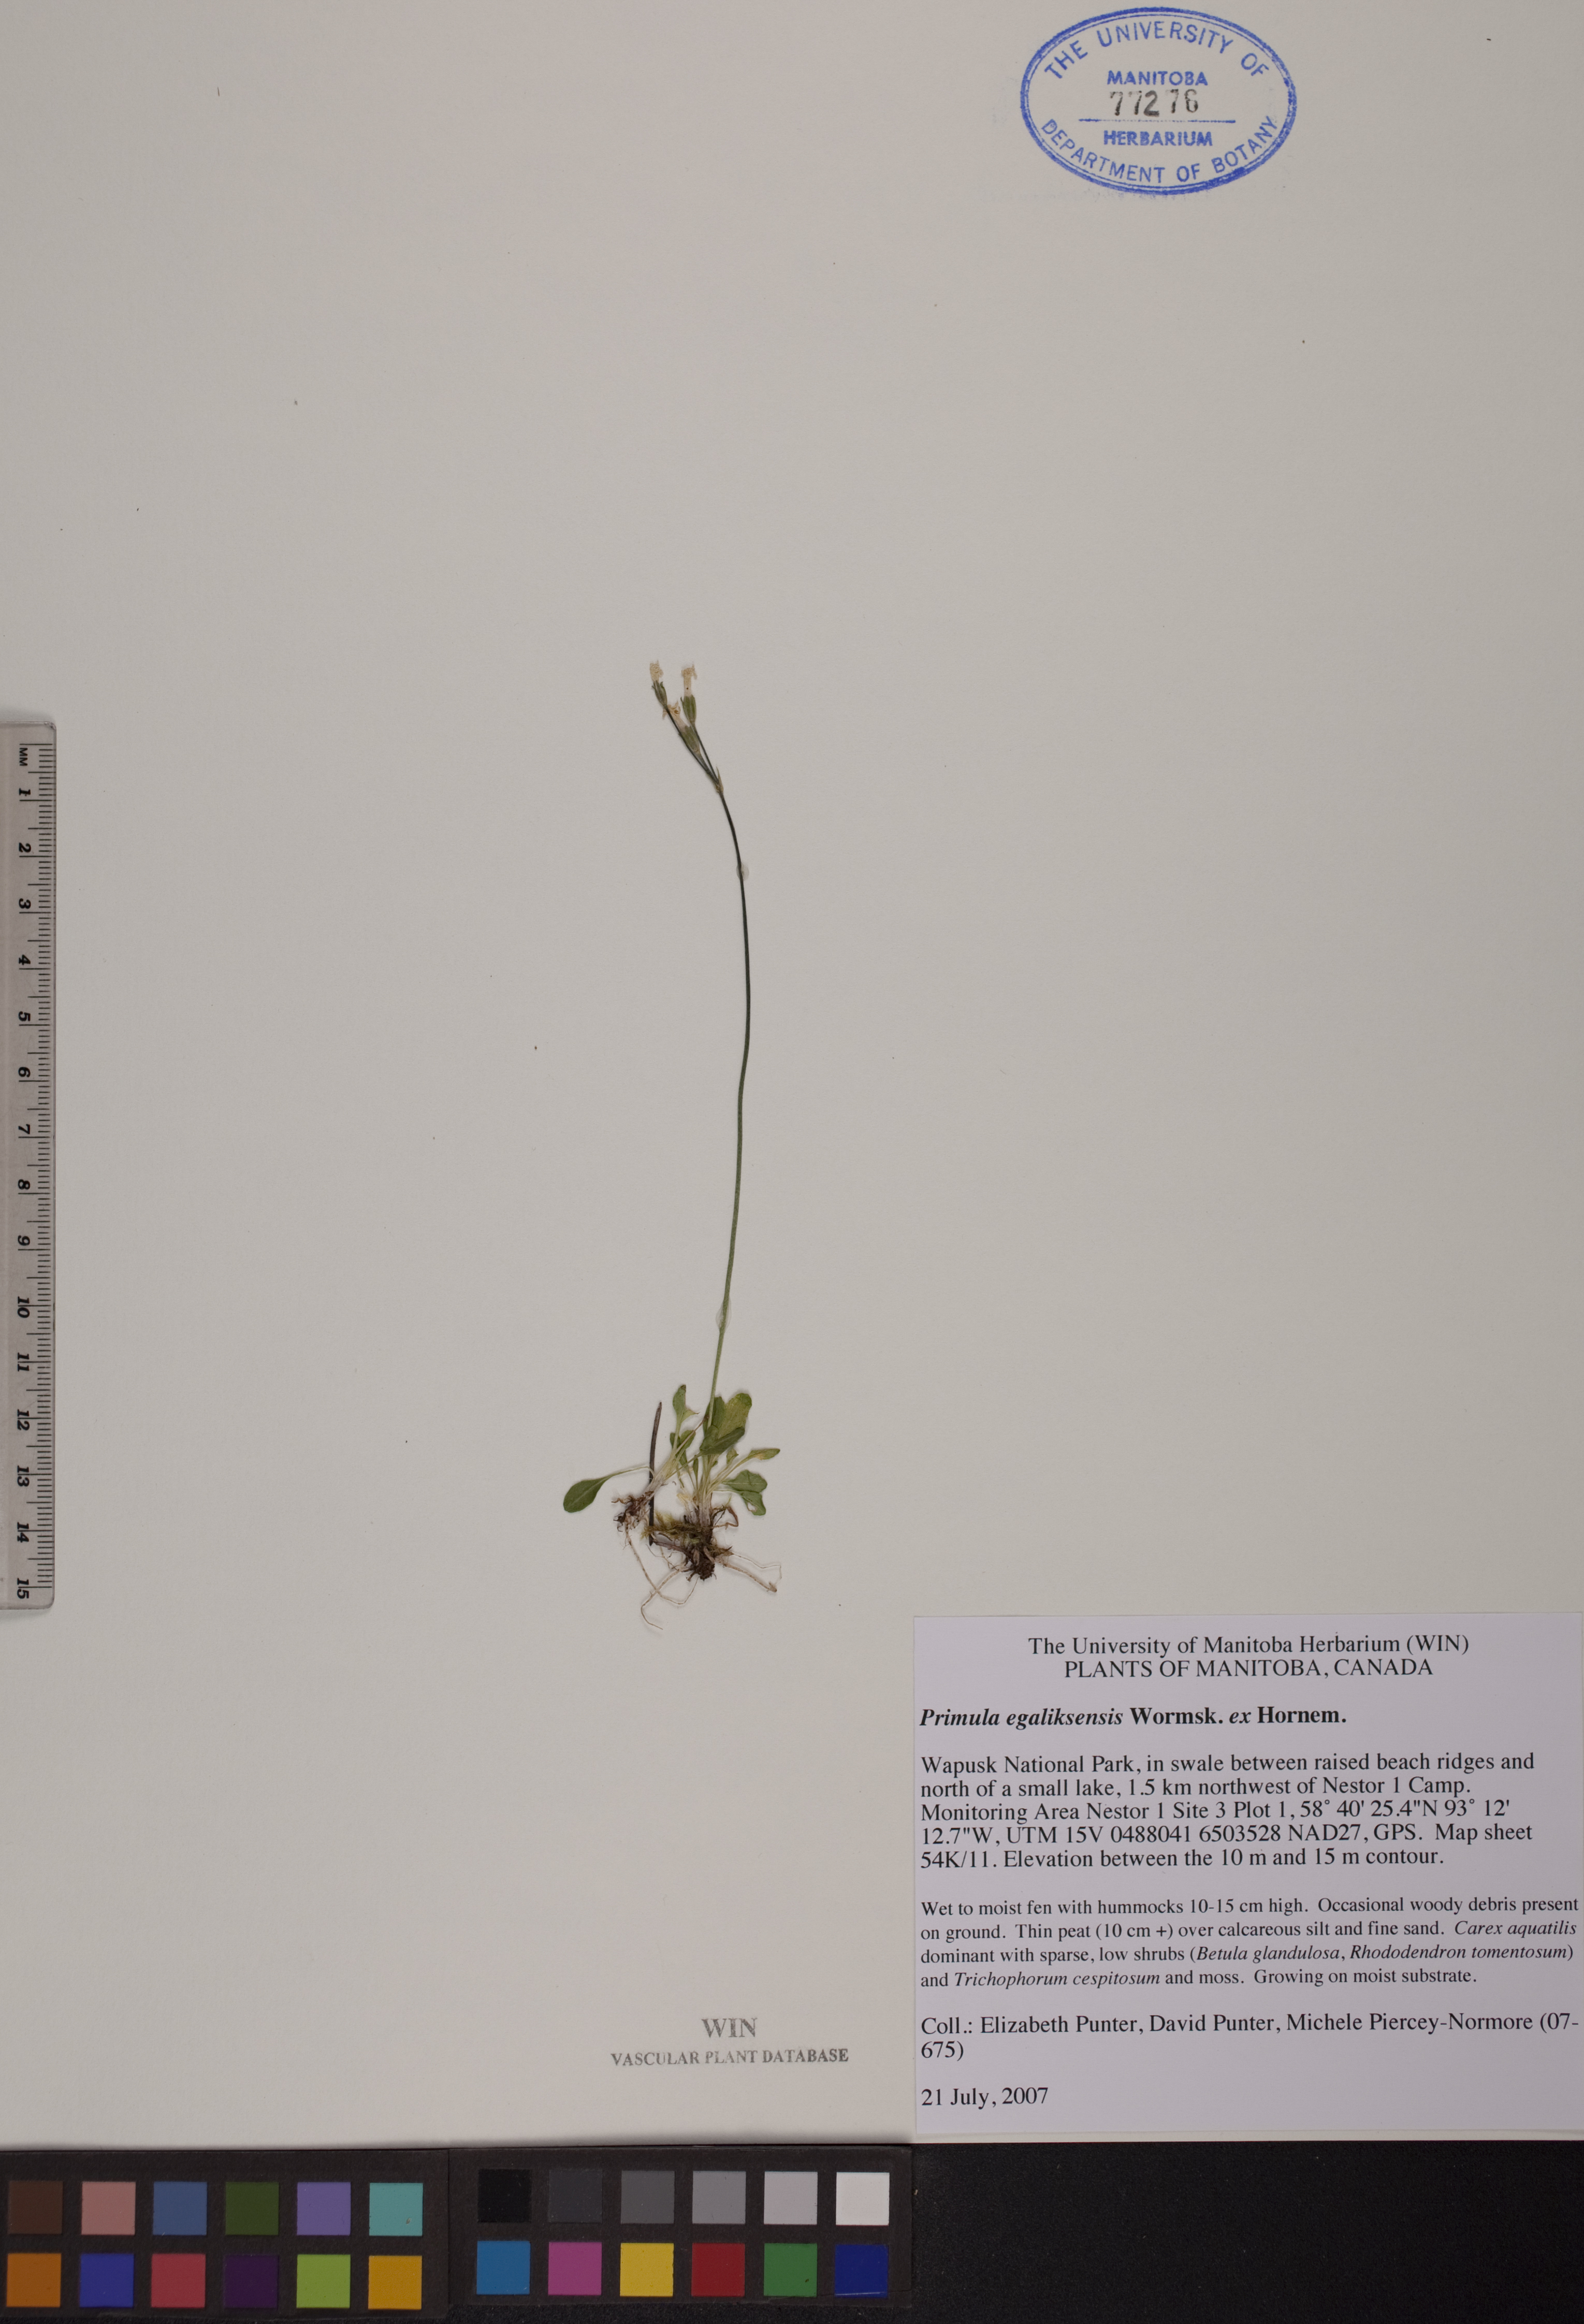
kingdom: Plantae
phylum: Tracheophyta
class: Magnoliopsida
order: Ericales
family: Primulaceae
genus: Primula
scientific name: Primula egaliksensis
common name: Greenland primrose
